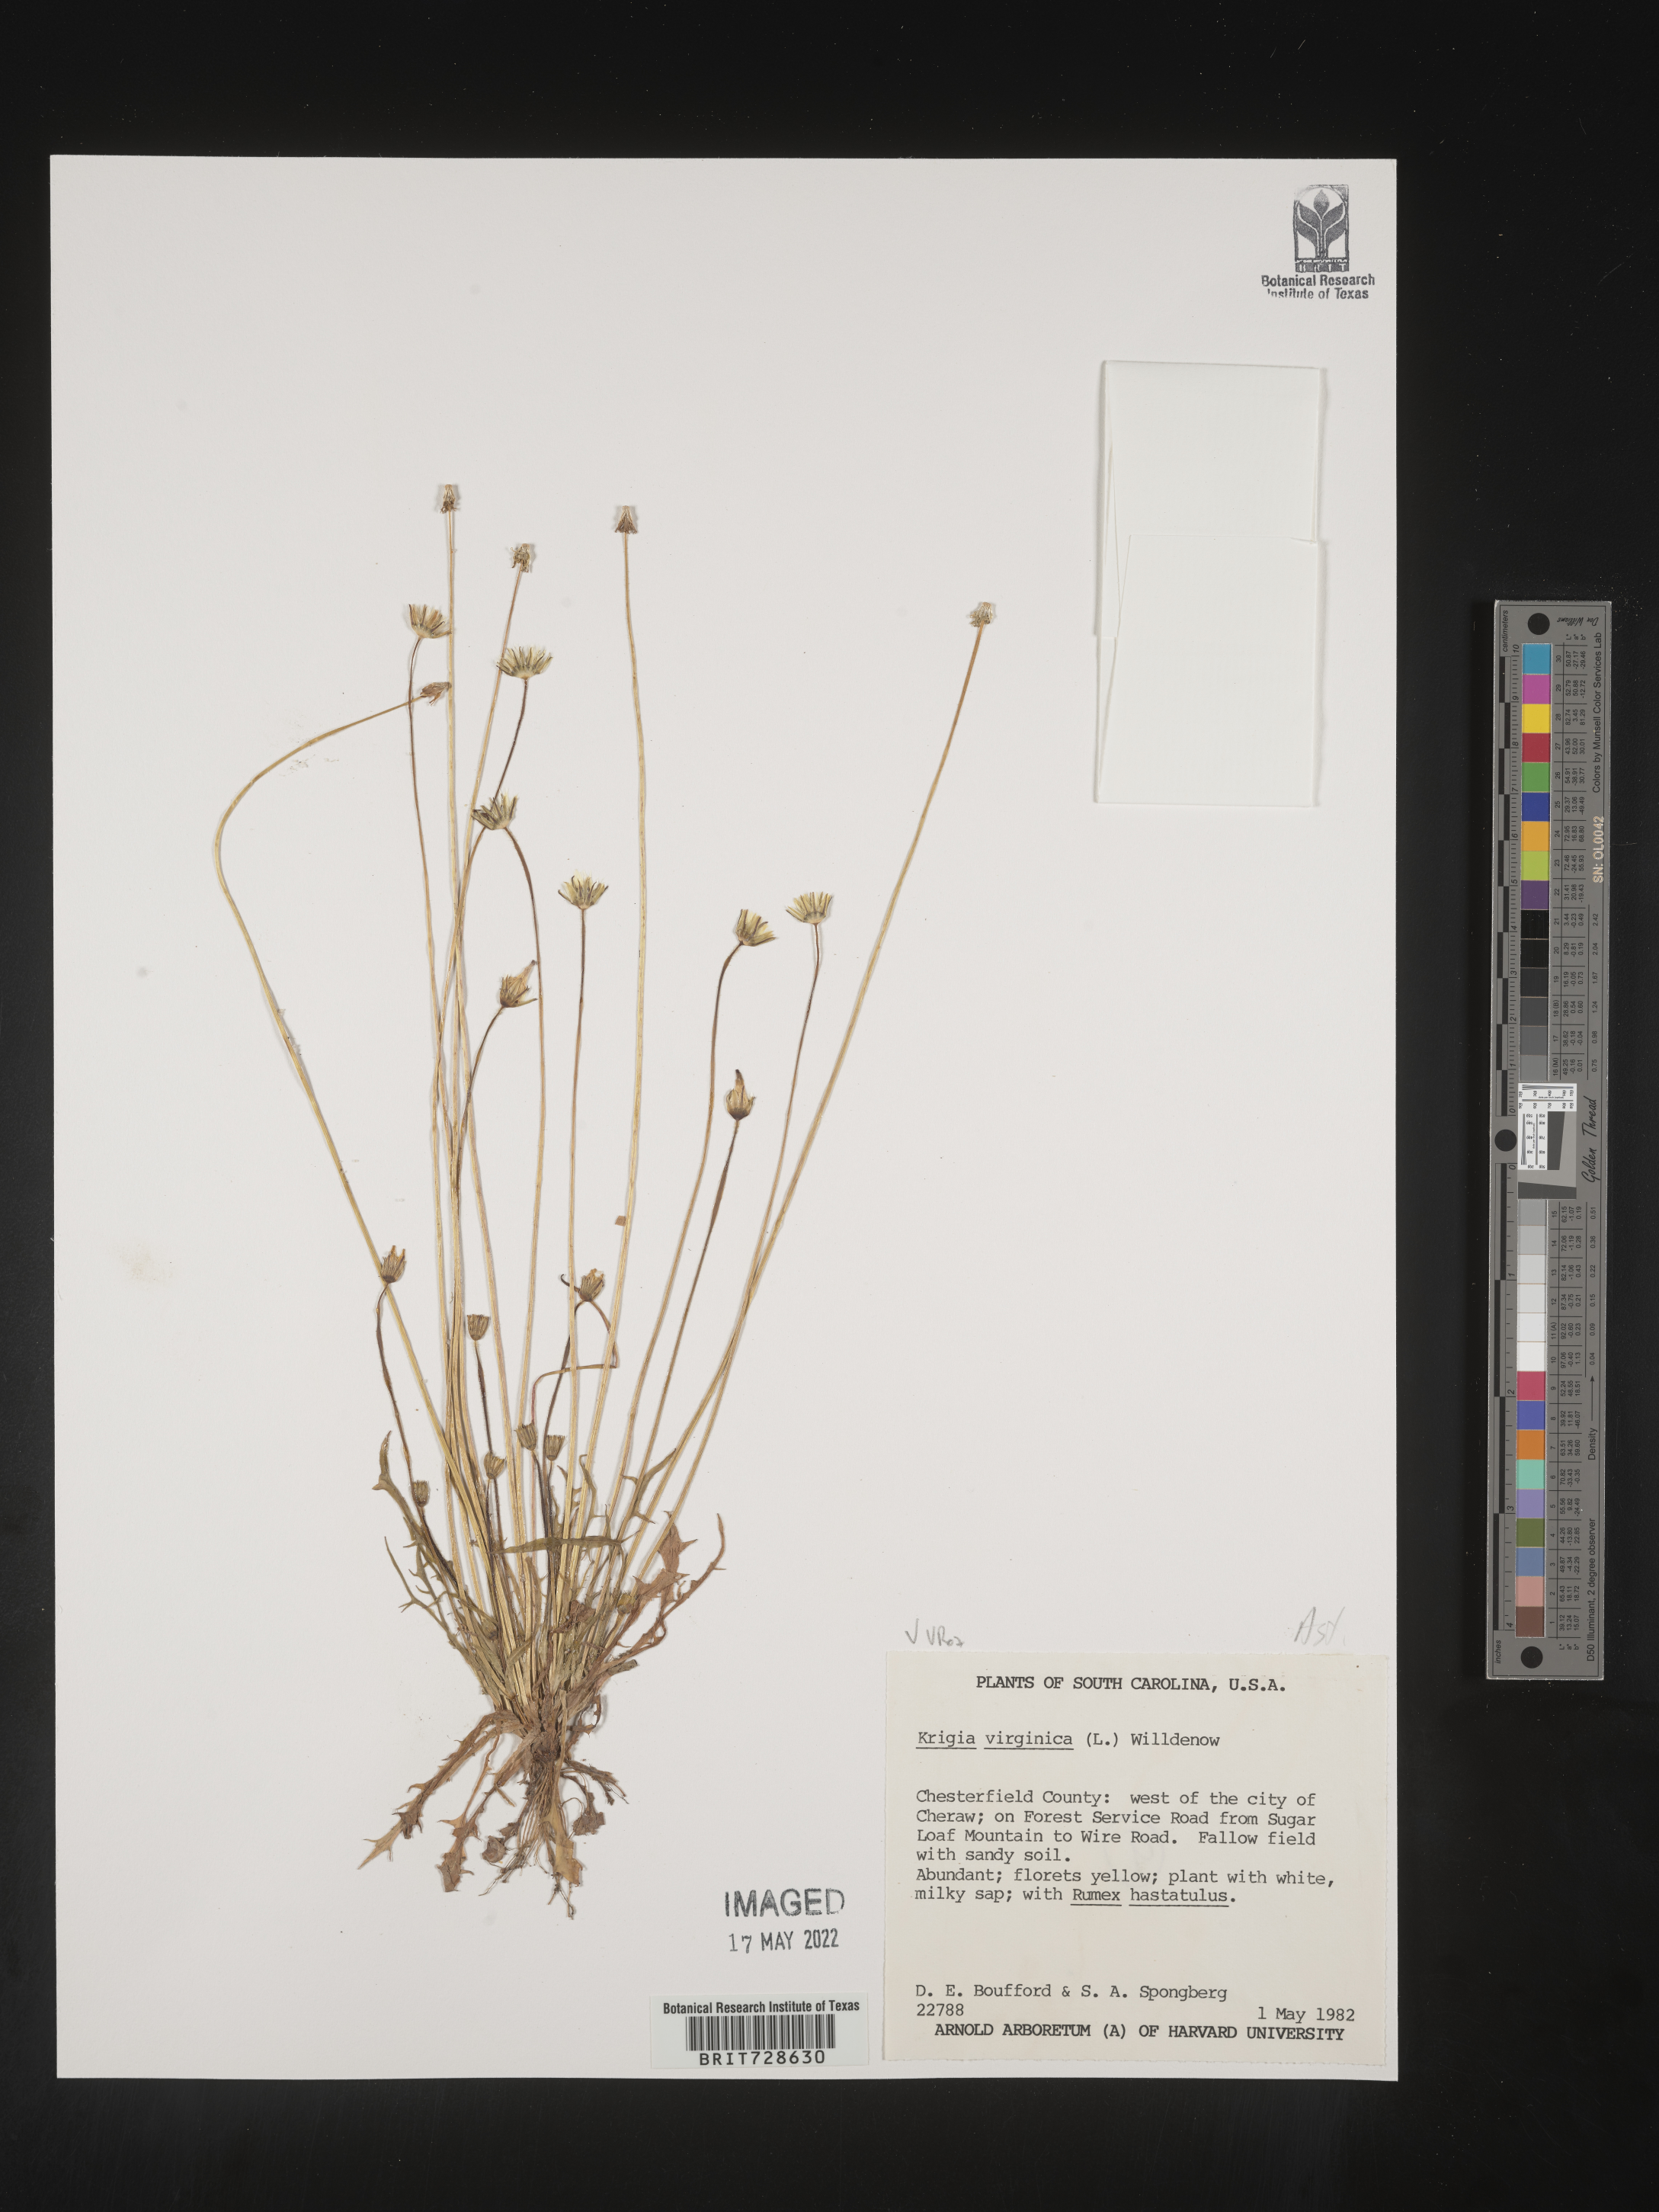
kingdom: Plantae
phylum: Tracheophyta
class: Magnoliopsida
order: Asterales
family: Asteraceae
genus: Krigia
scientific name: Krigia virginica
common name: Virginia dwarf-dandelion
